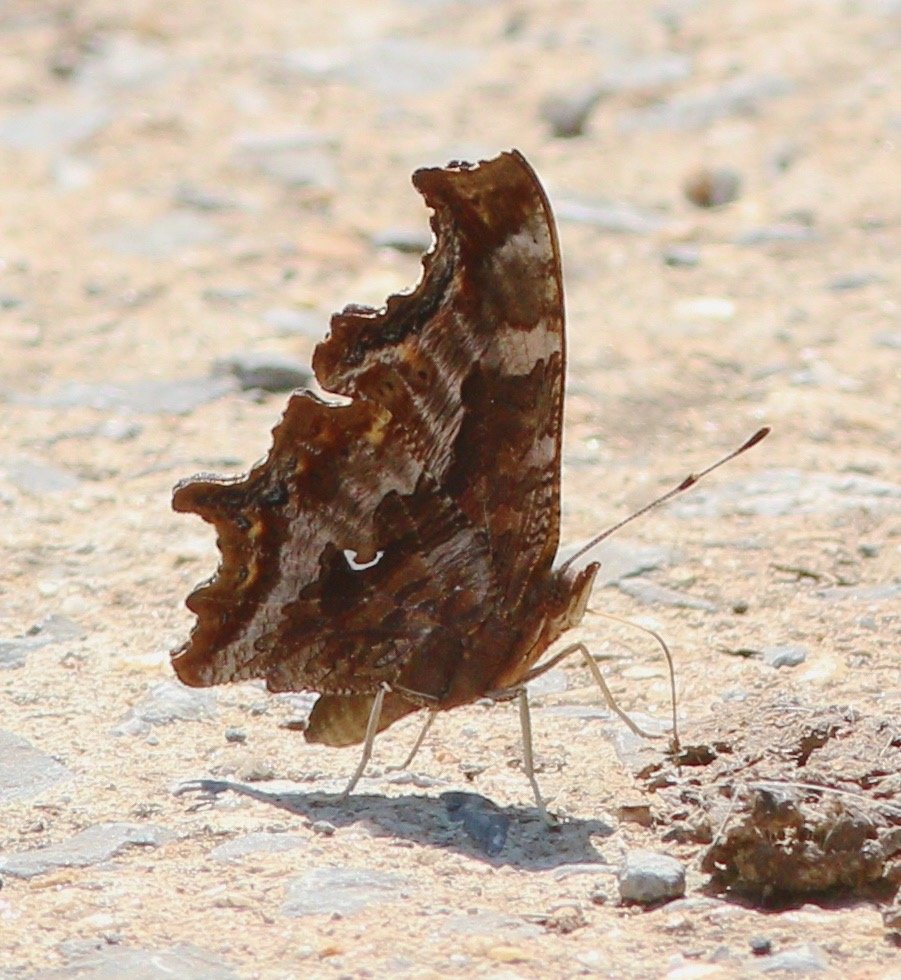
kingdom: Animalia
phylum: Arthropoda
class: Insecta
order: Lepidoptera
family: Nymphalidae
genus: Polygonia
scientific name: Polygonia comma
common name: Eastern Comma
